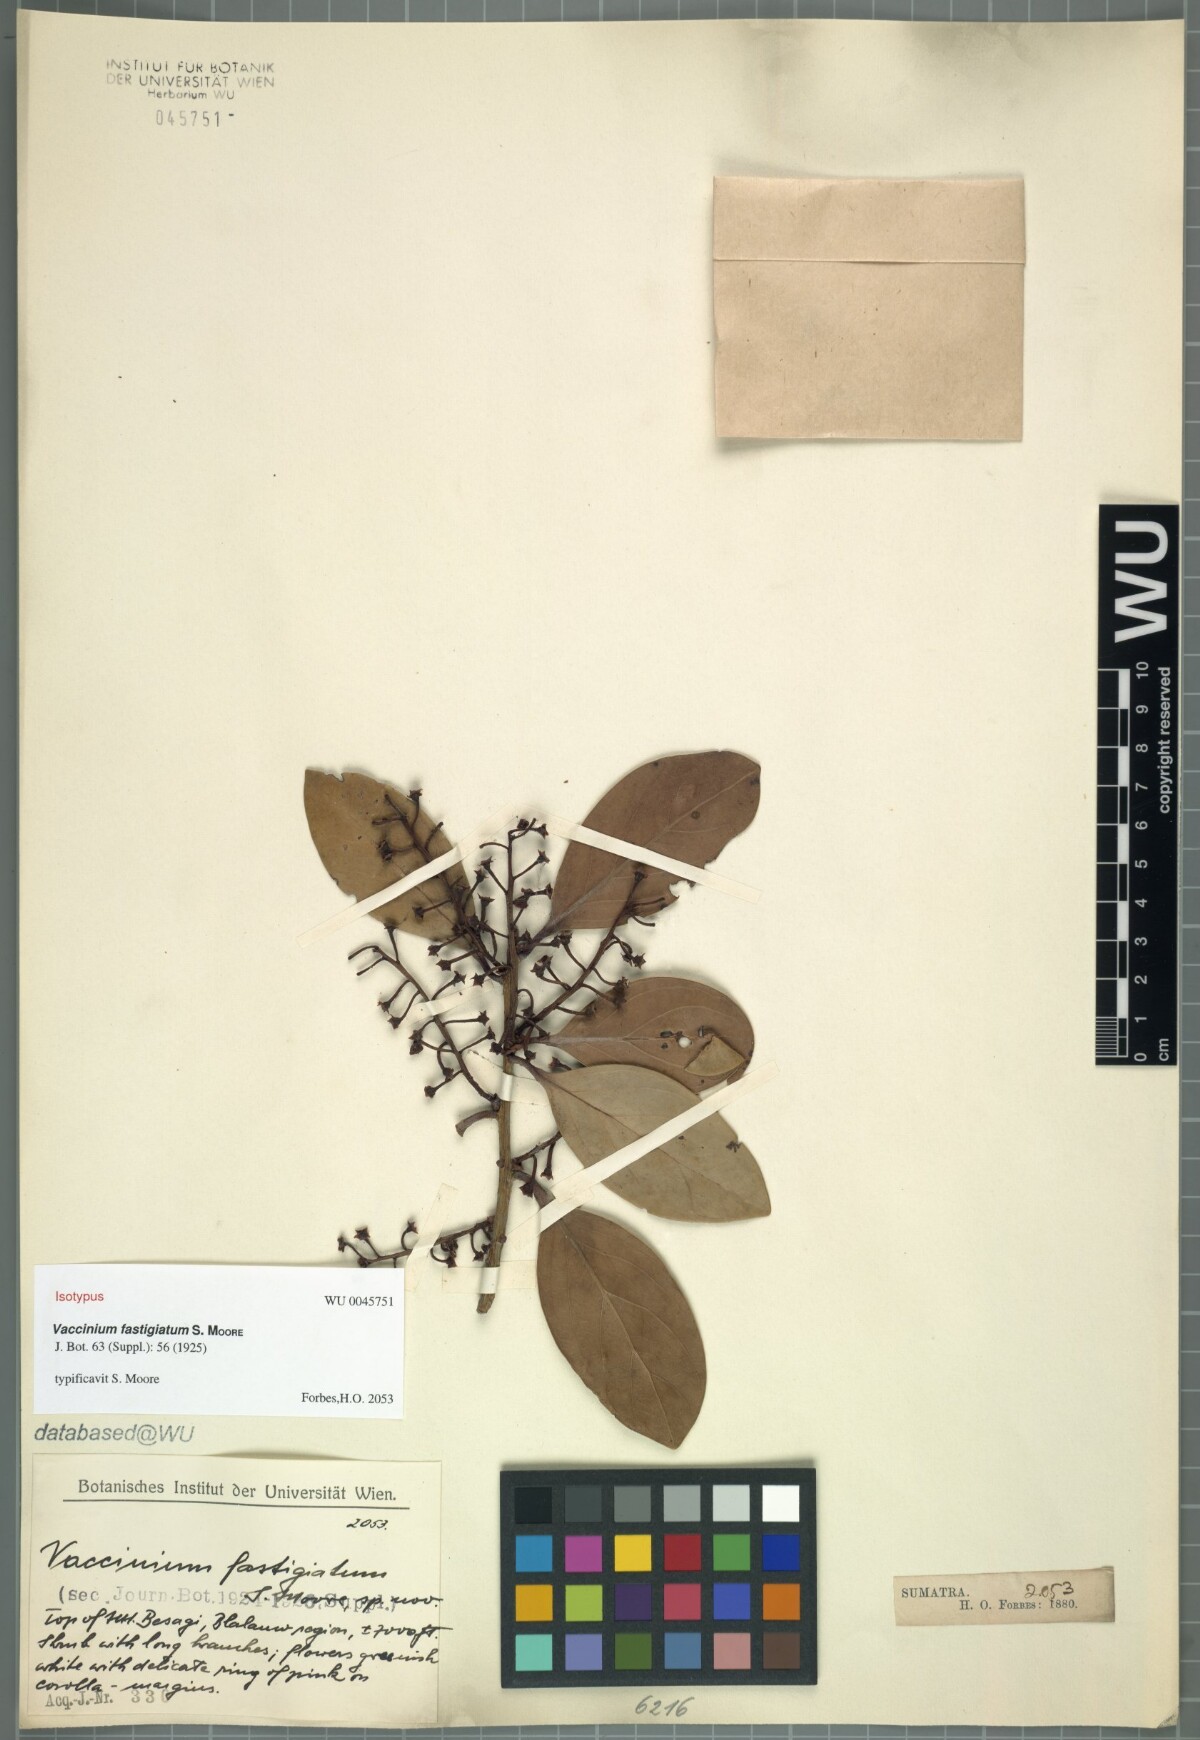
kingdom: Plantae
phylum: Tracheophyta
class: Magnoliopsida
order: Ericales
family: Ericaceae
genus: Vaccinium
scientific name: Vaccinium laurifolium
